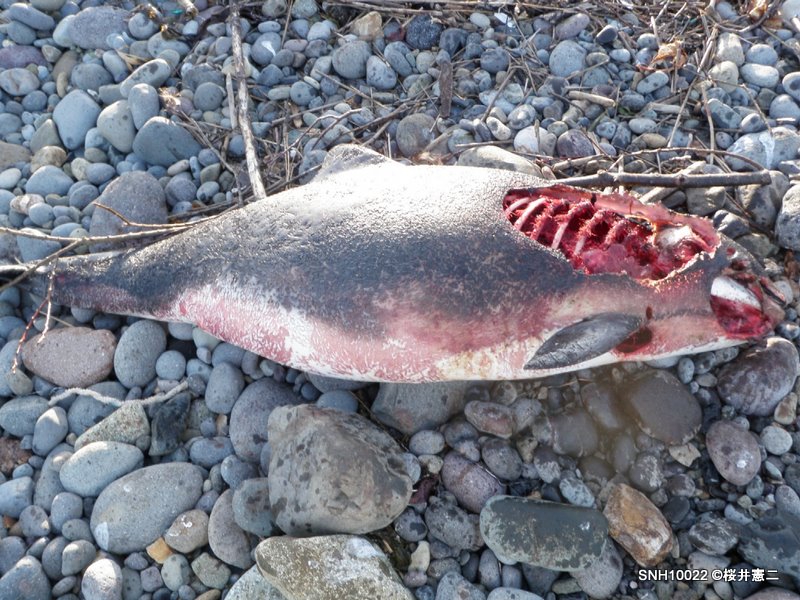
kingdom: Animalia
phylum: Chordata
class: Mammalia
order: Cetacea
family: Phocoenidae
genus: Phocoena
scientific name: Phocoena phocoena
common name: Harbour porpoise
